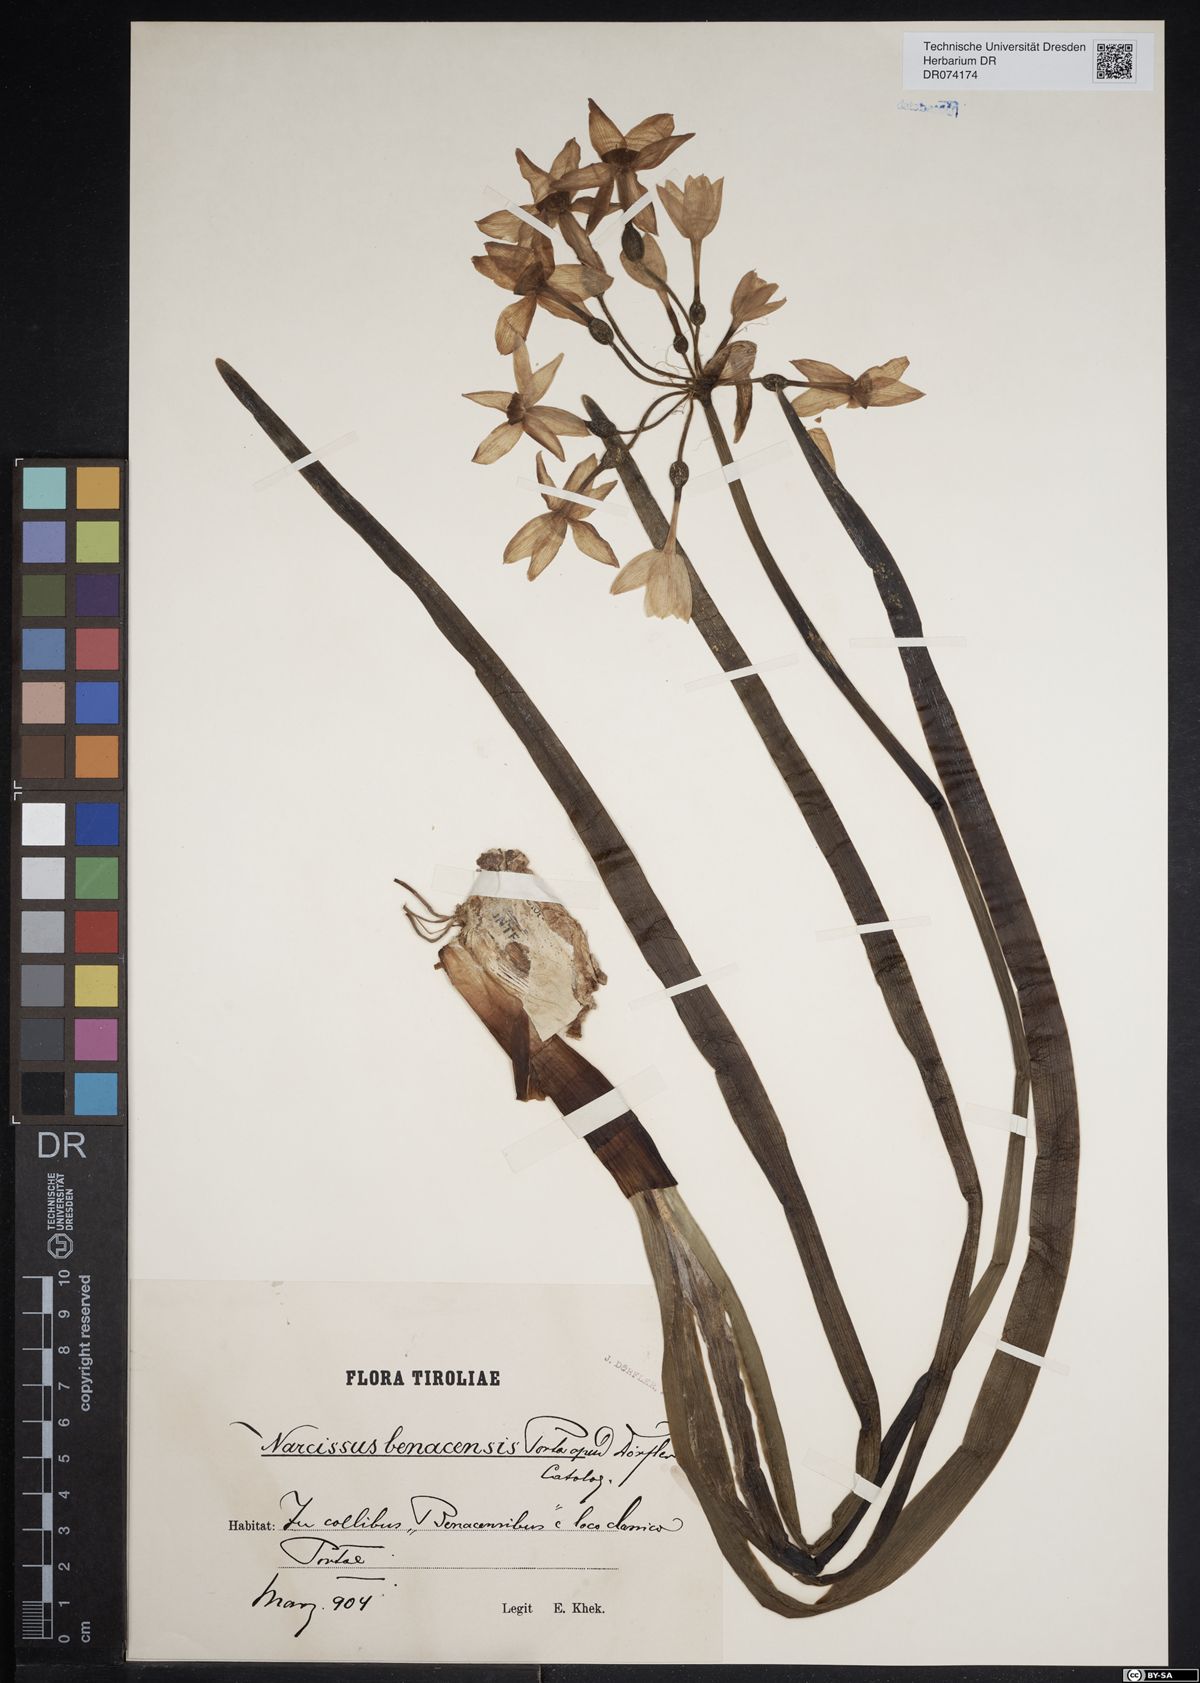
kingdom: Plantae
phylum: Tracheophyta
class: Liliopsida
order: Asparagales
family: Amaryllidaceae
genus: Narcissus
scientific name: Narcissus benacensis
